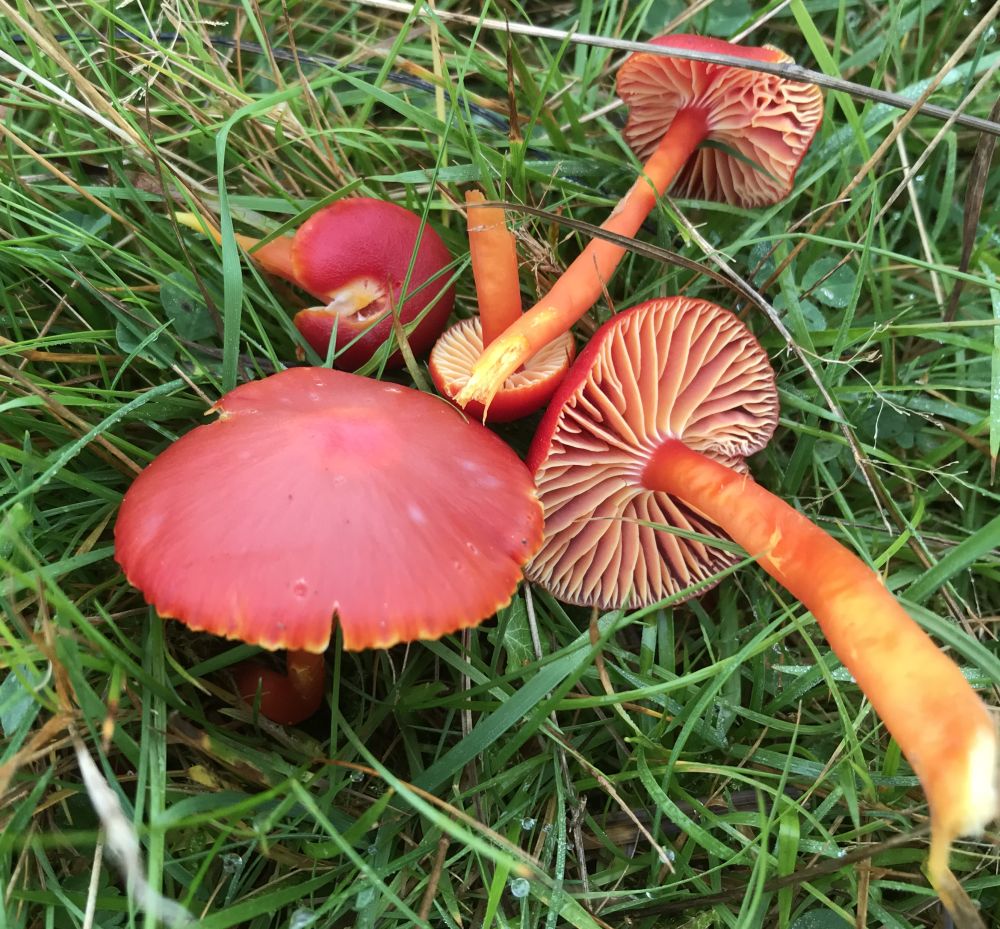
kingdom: Fungi
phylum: Basidiomycota
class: Agaricomycetes
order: Agaricales
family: Hygrophoraceae
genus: Hygrocybe
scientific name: Hygrocybe coccinea
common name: cinnober-vokshat
